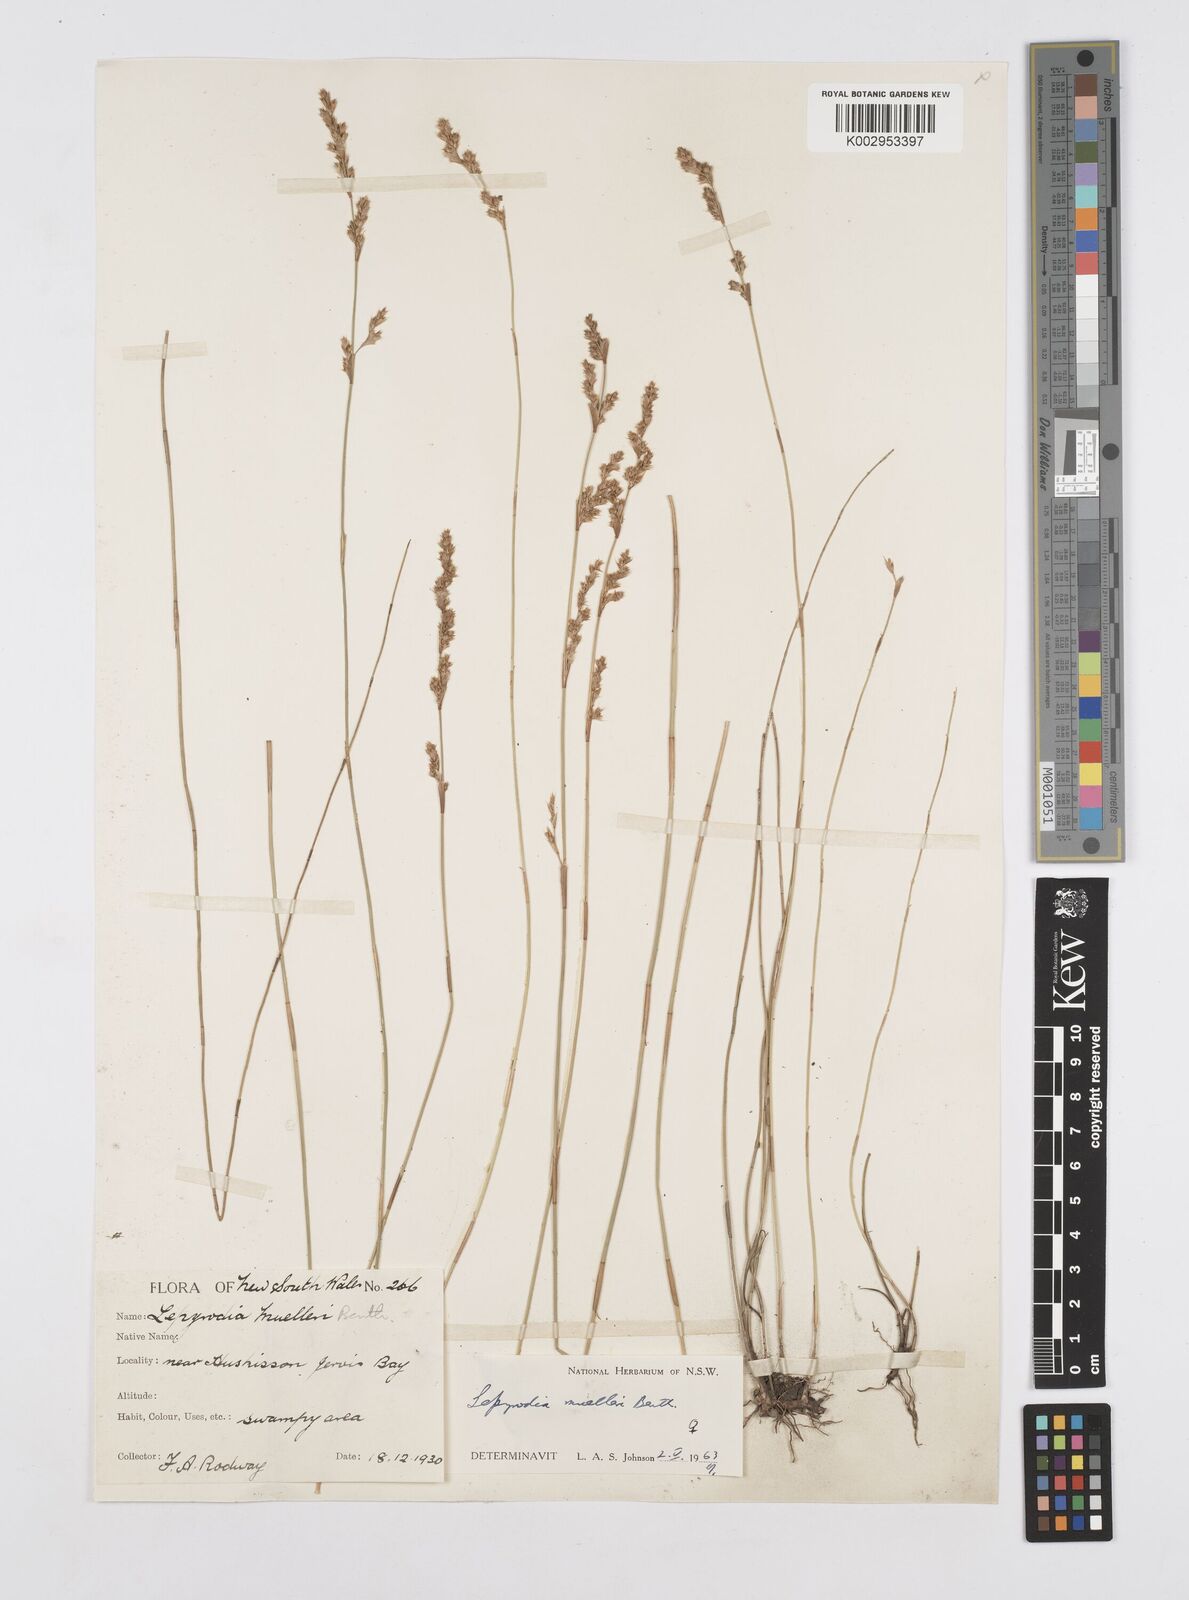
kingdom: Plantae
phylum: Tracheophyta
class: Liliopsida
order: Poales
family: Restionaceae
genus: Lepyrodia
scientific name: Lepyrodia muelleri
